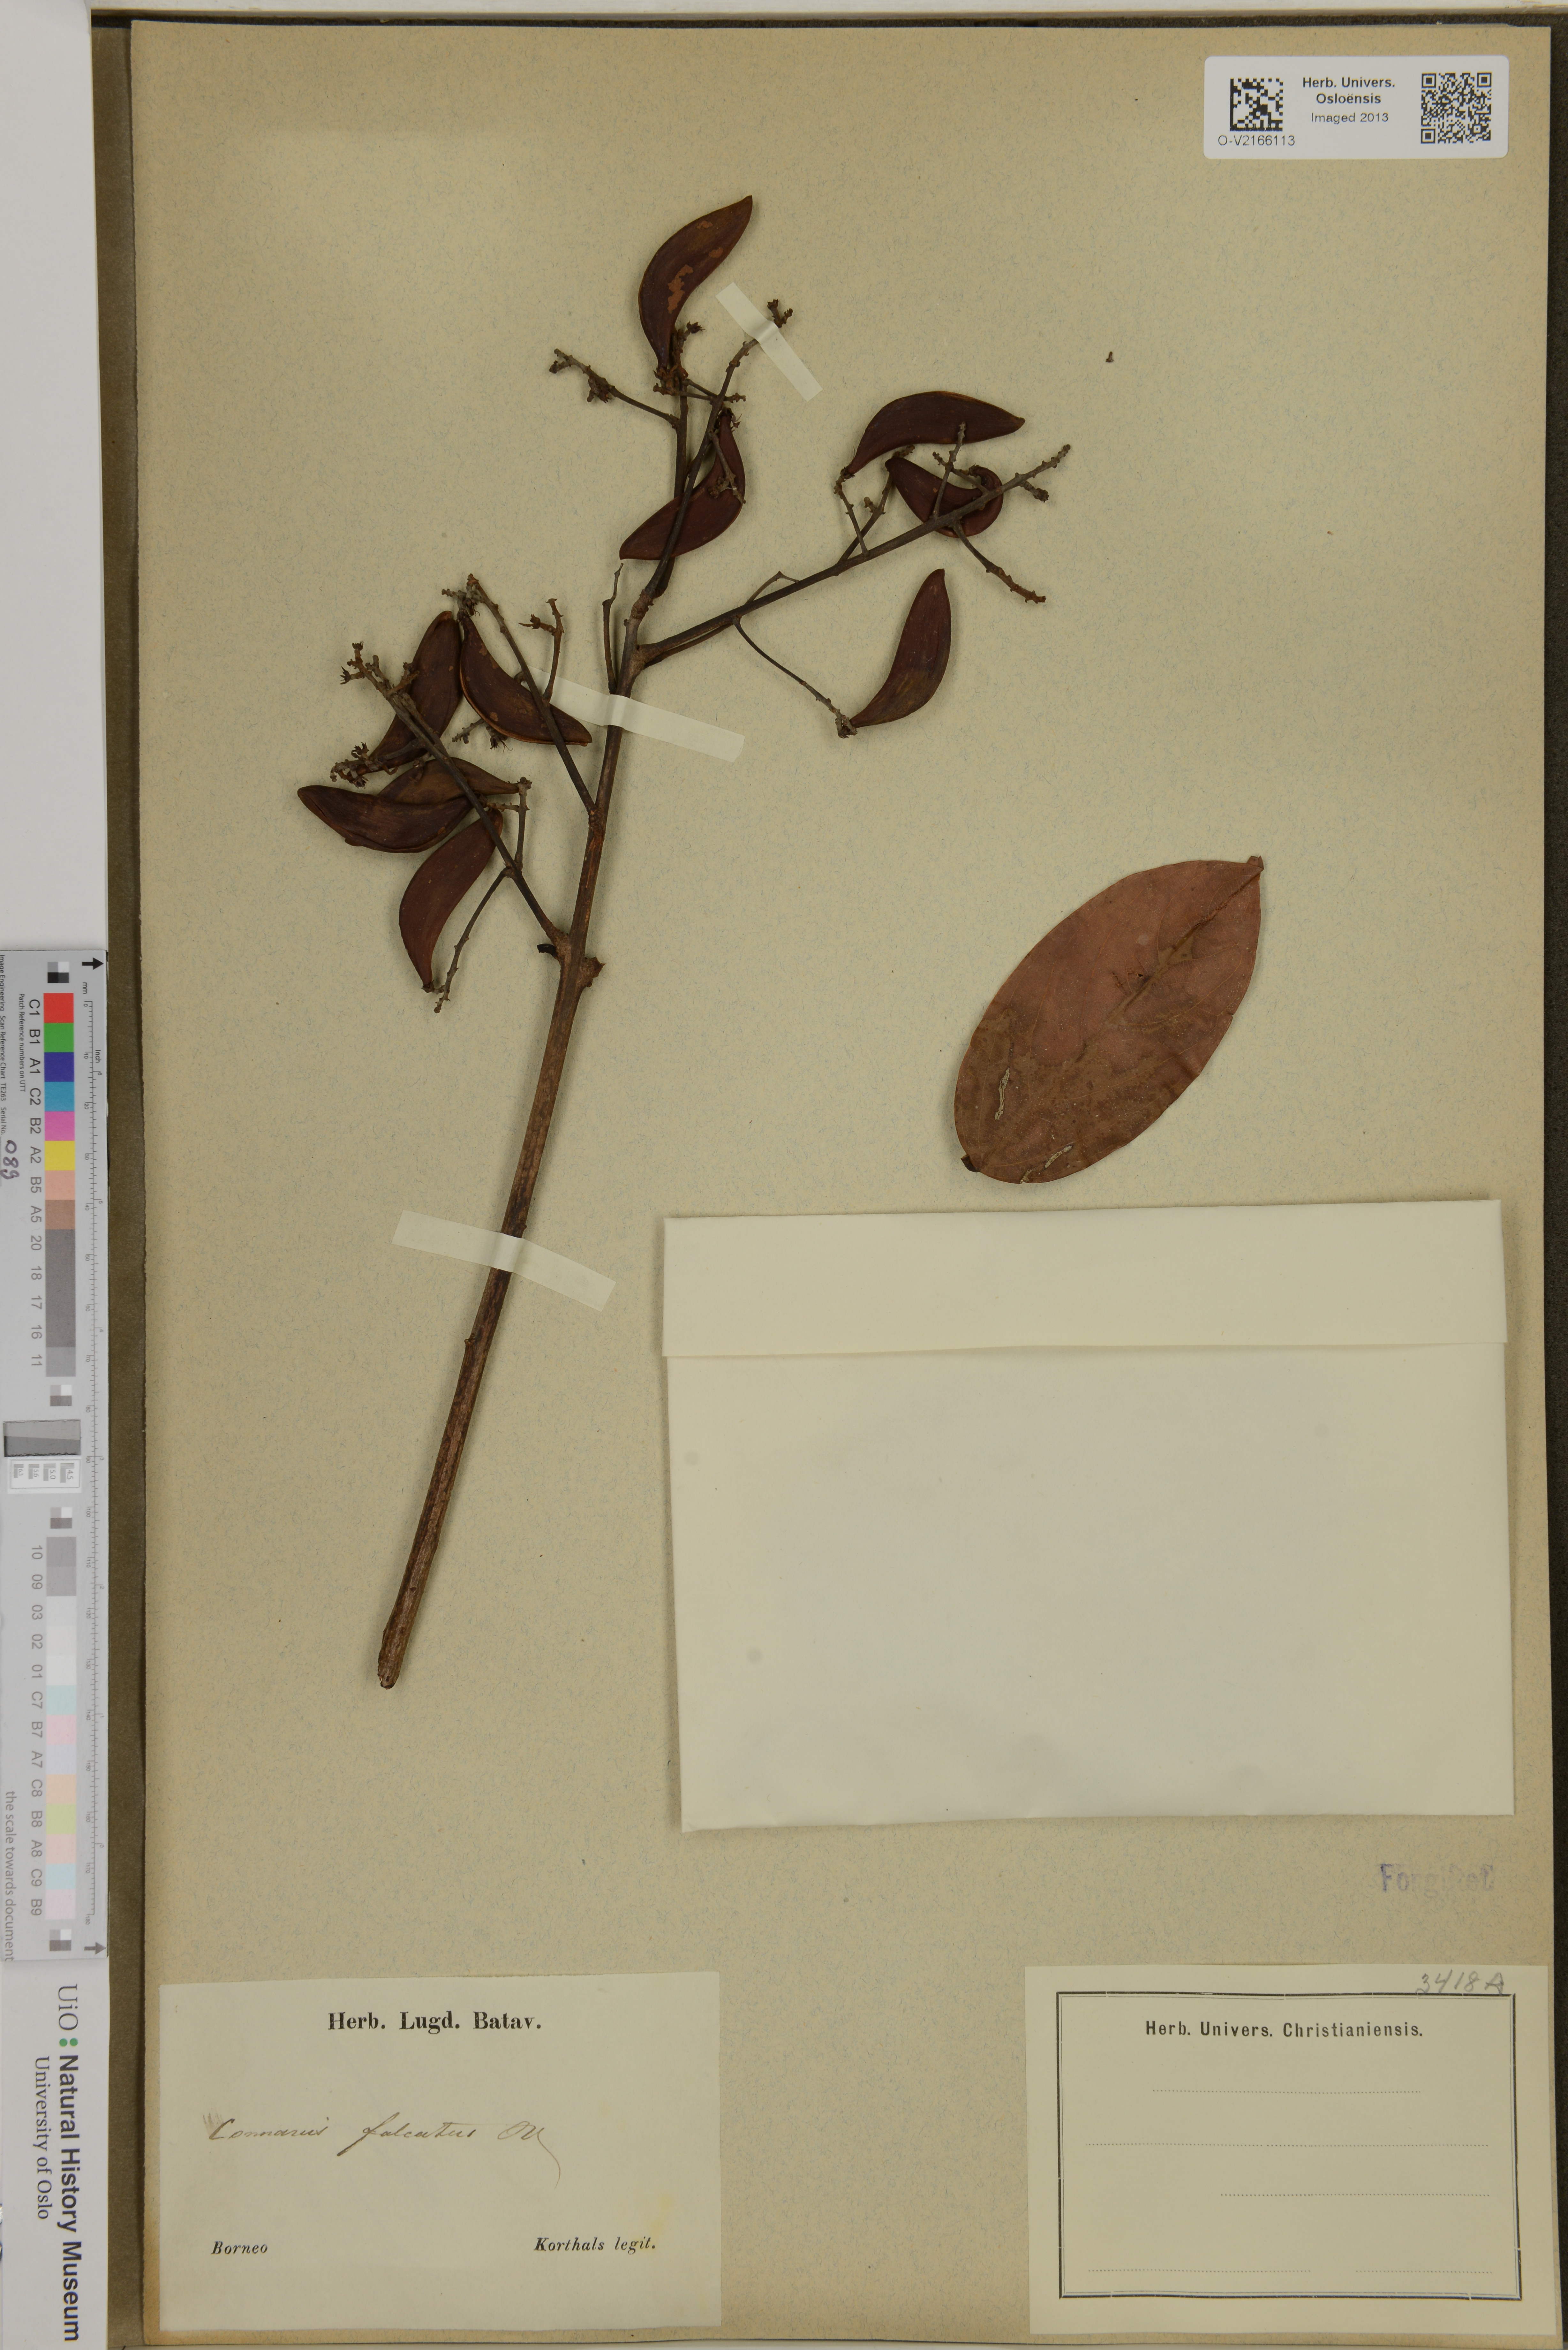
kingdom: Plantae
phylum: Tracheophyta
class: Magnoliopsida
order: Oxalidales
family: Connaraceae
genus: Connarus
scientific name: Connarus monocarpus
